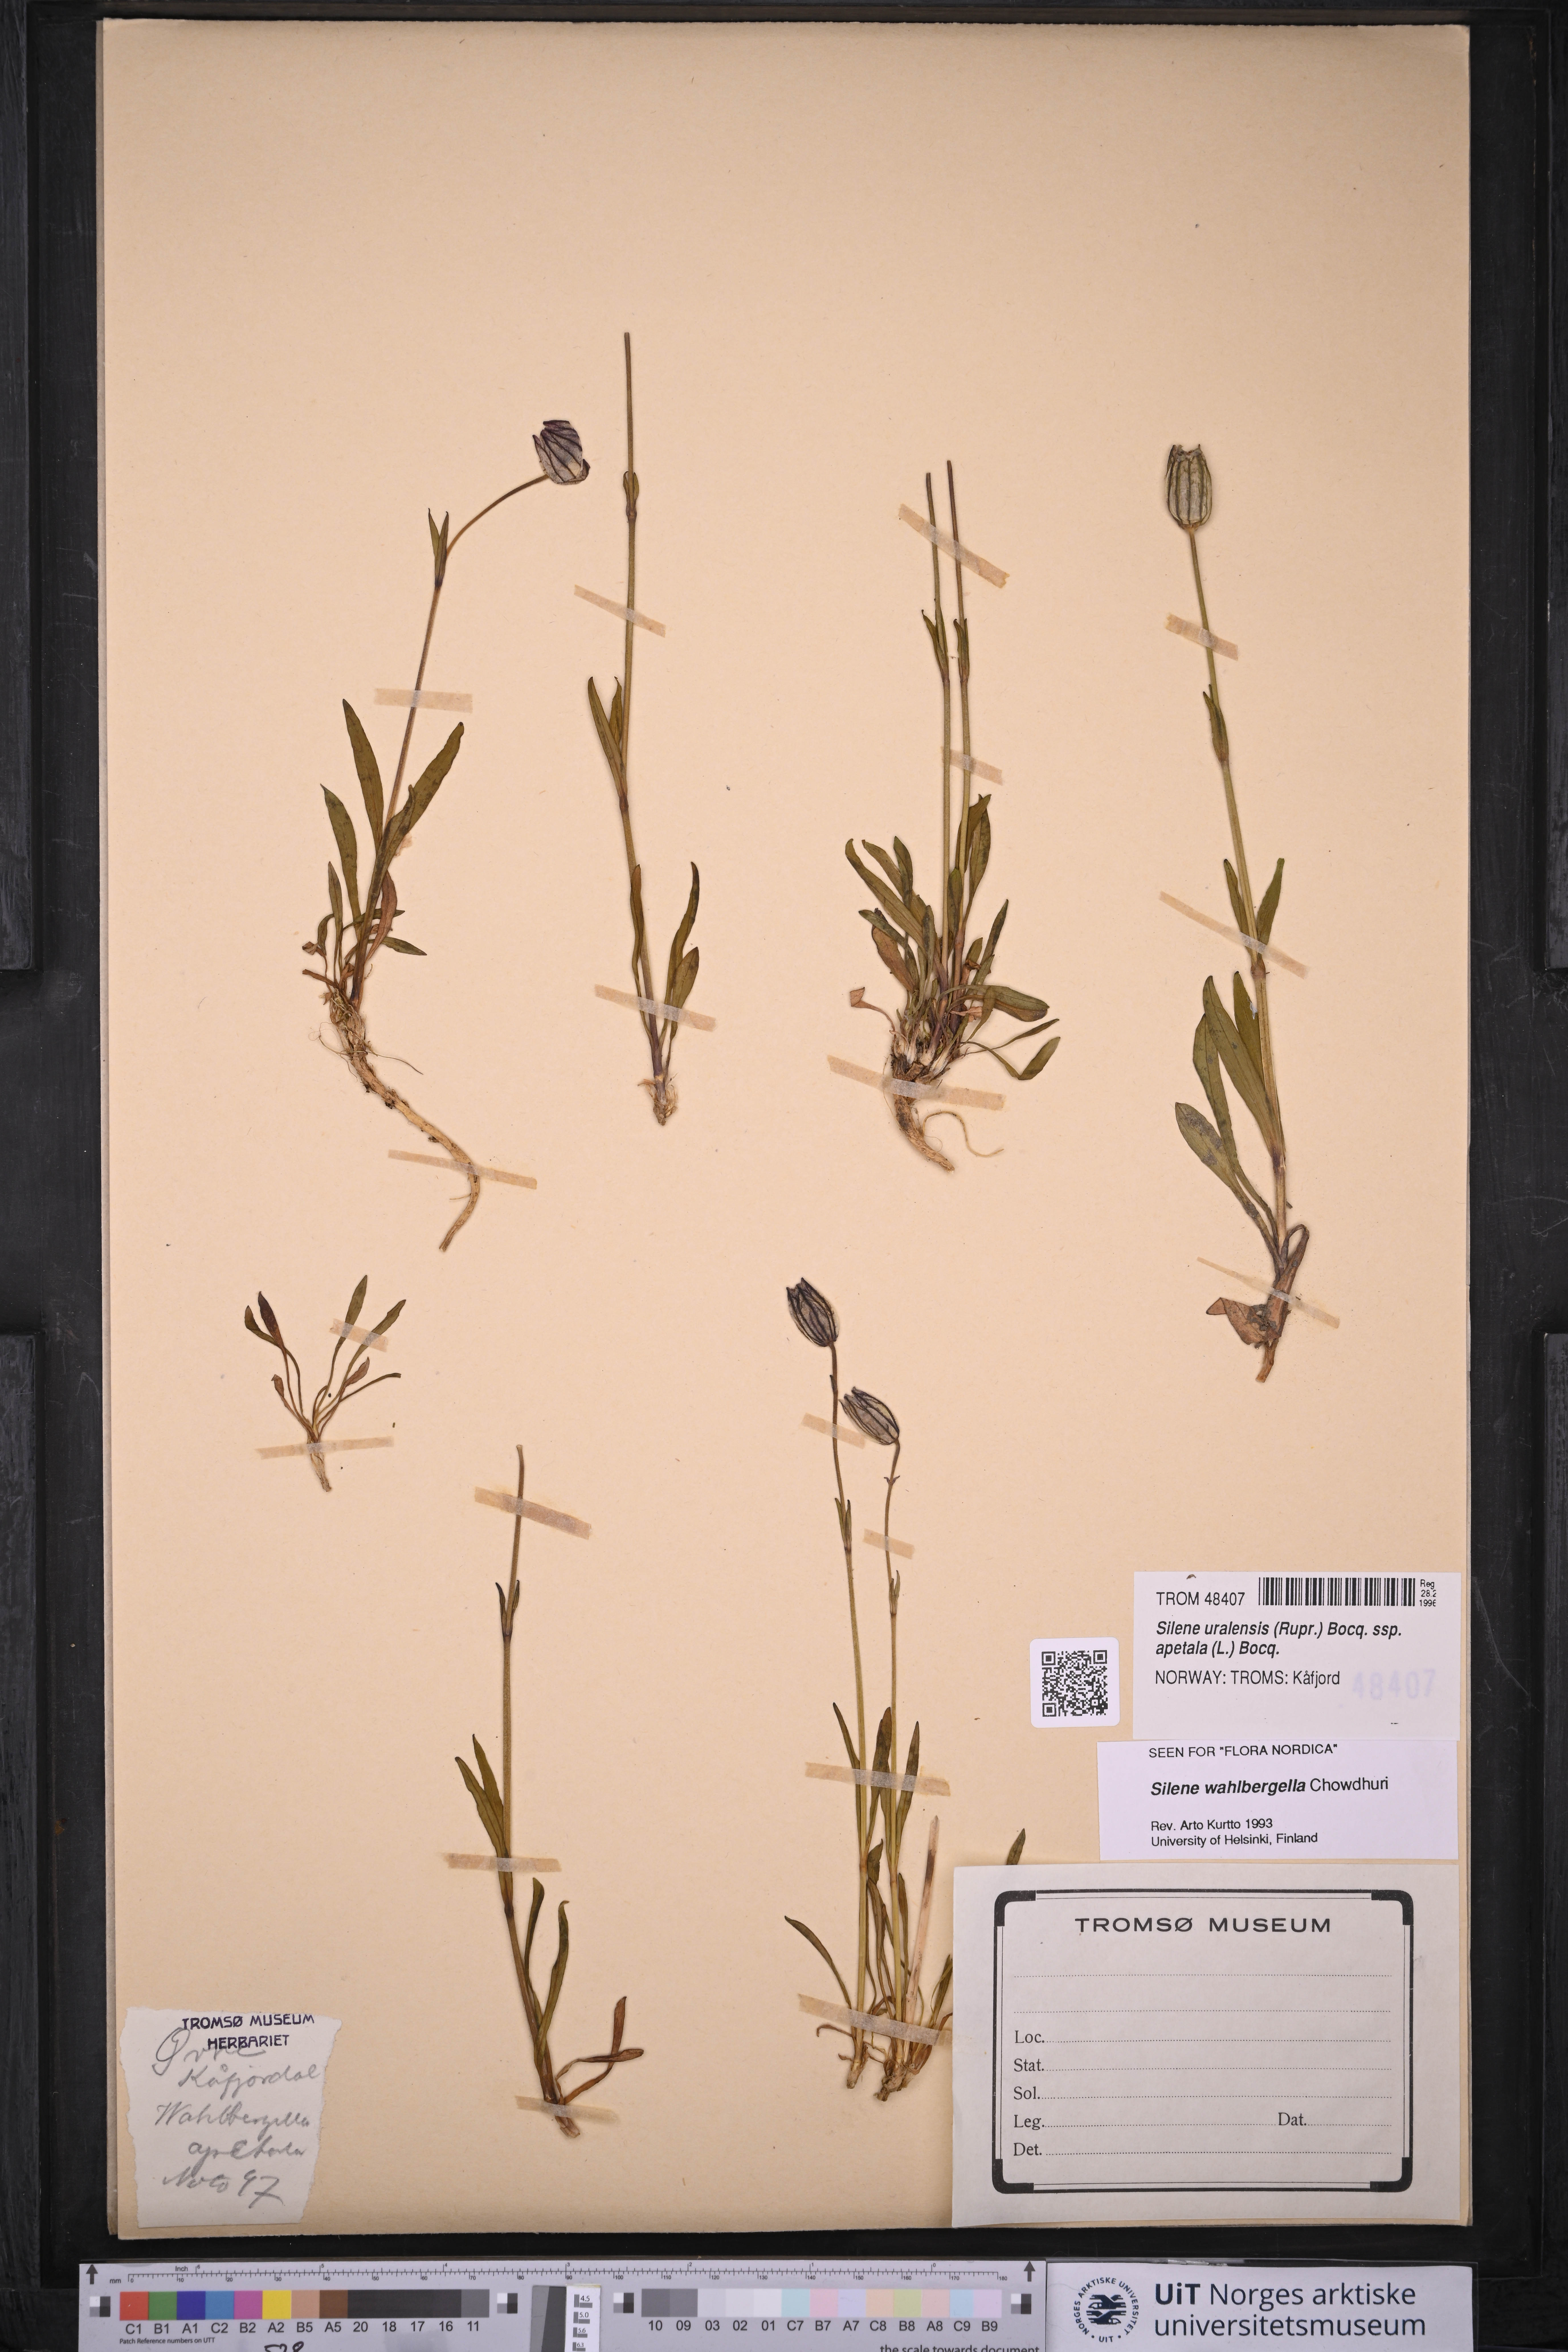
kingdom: Plantae
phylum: Tracheophyta
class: Magnoliopsida
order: Caryophyllales
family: Caryophyllaceae
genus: Silene
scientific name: Silene wahlbergella
